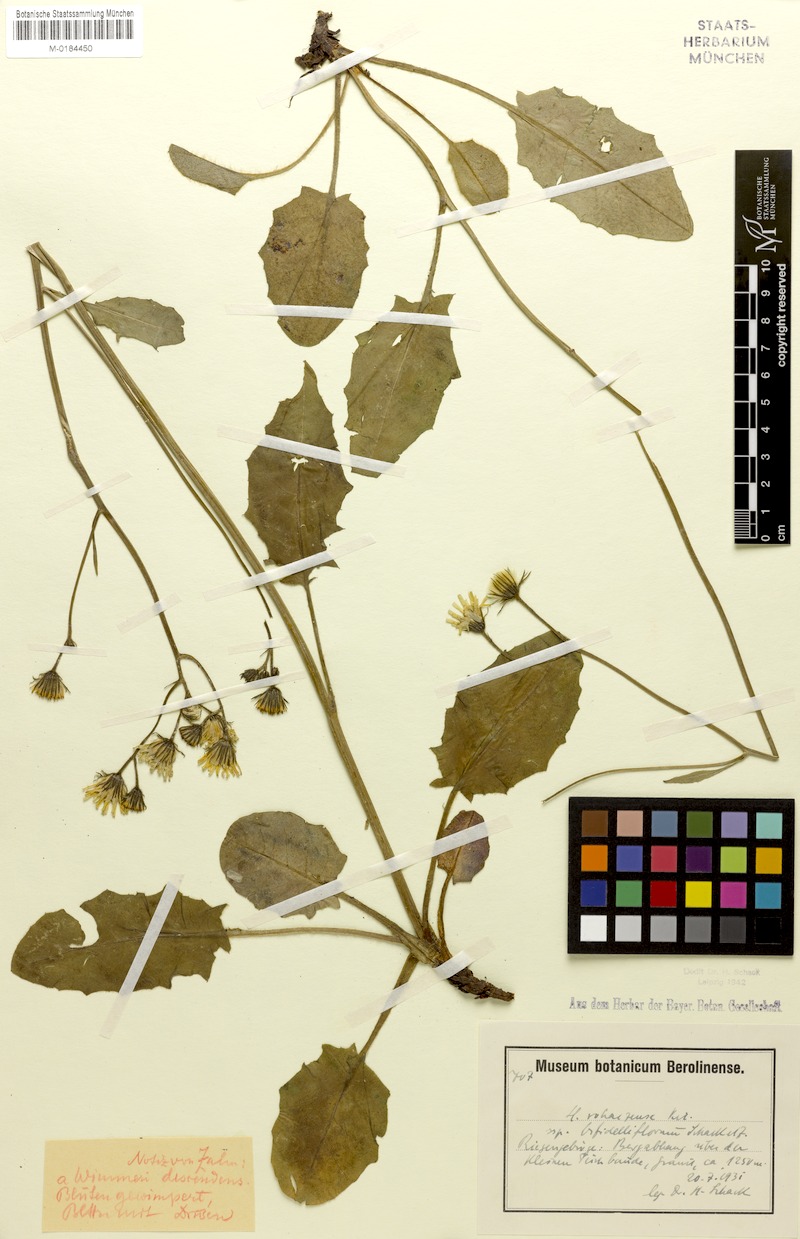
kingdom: Plantae
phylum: Tracheophyta
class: Magnoliopsida
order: Asterales
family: Asteraceae
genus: Hieracium
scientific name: Hieracium rohacsense
